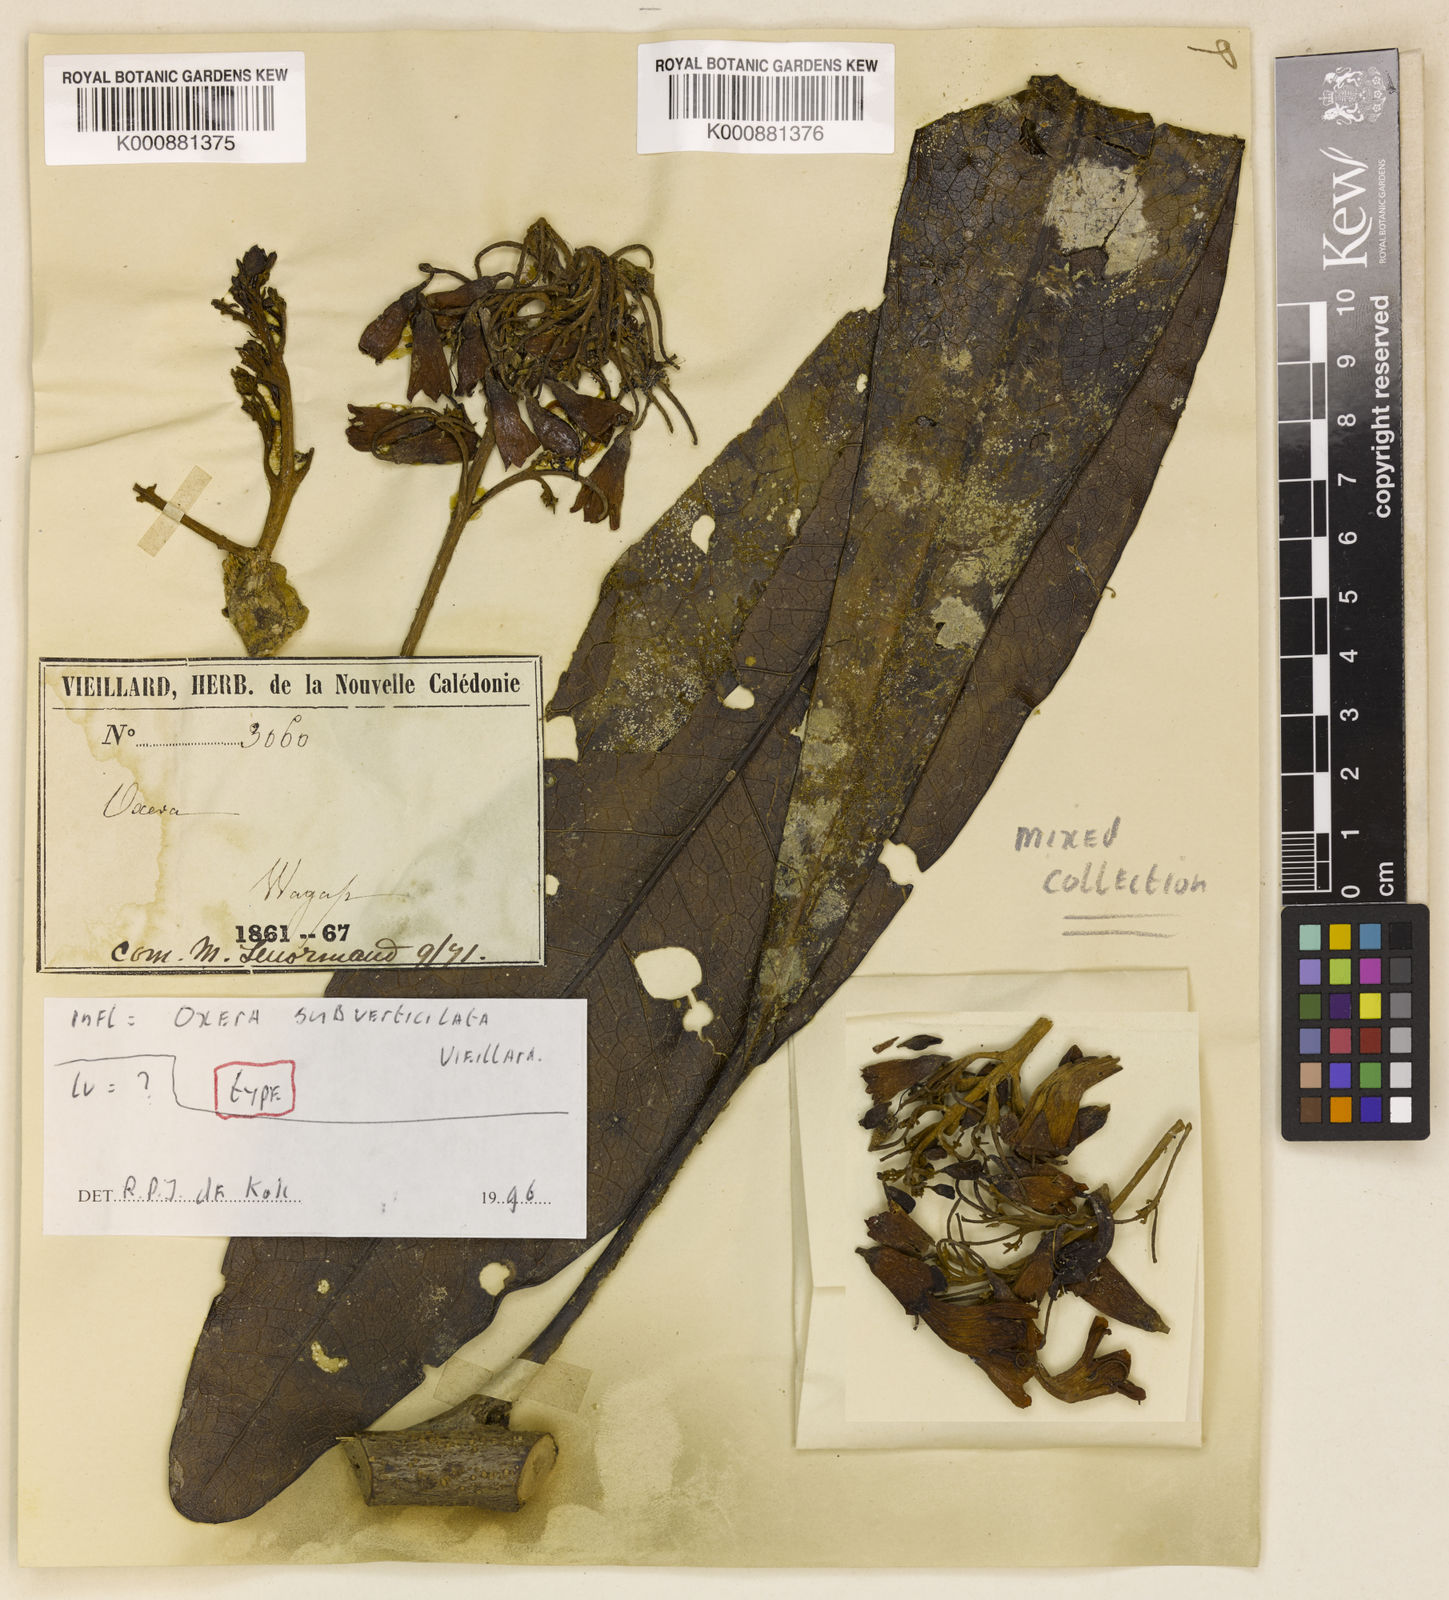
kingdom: Plantae
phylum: Tracheophyta
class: Magnoliopsida
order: Lamiales
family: Lamiaceae
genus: Oxera
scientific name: Oxera subverticillata
